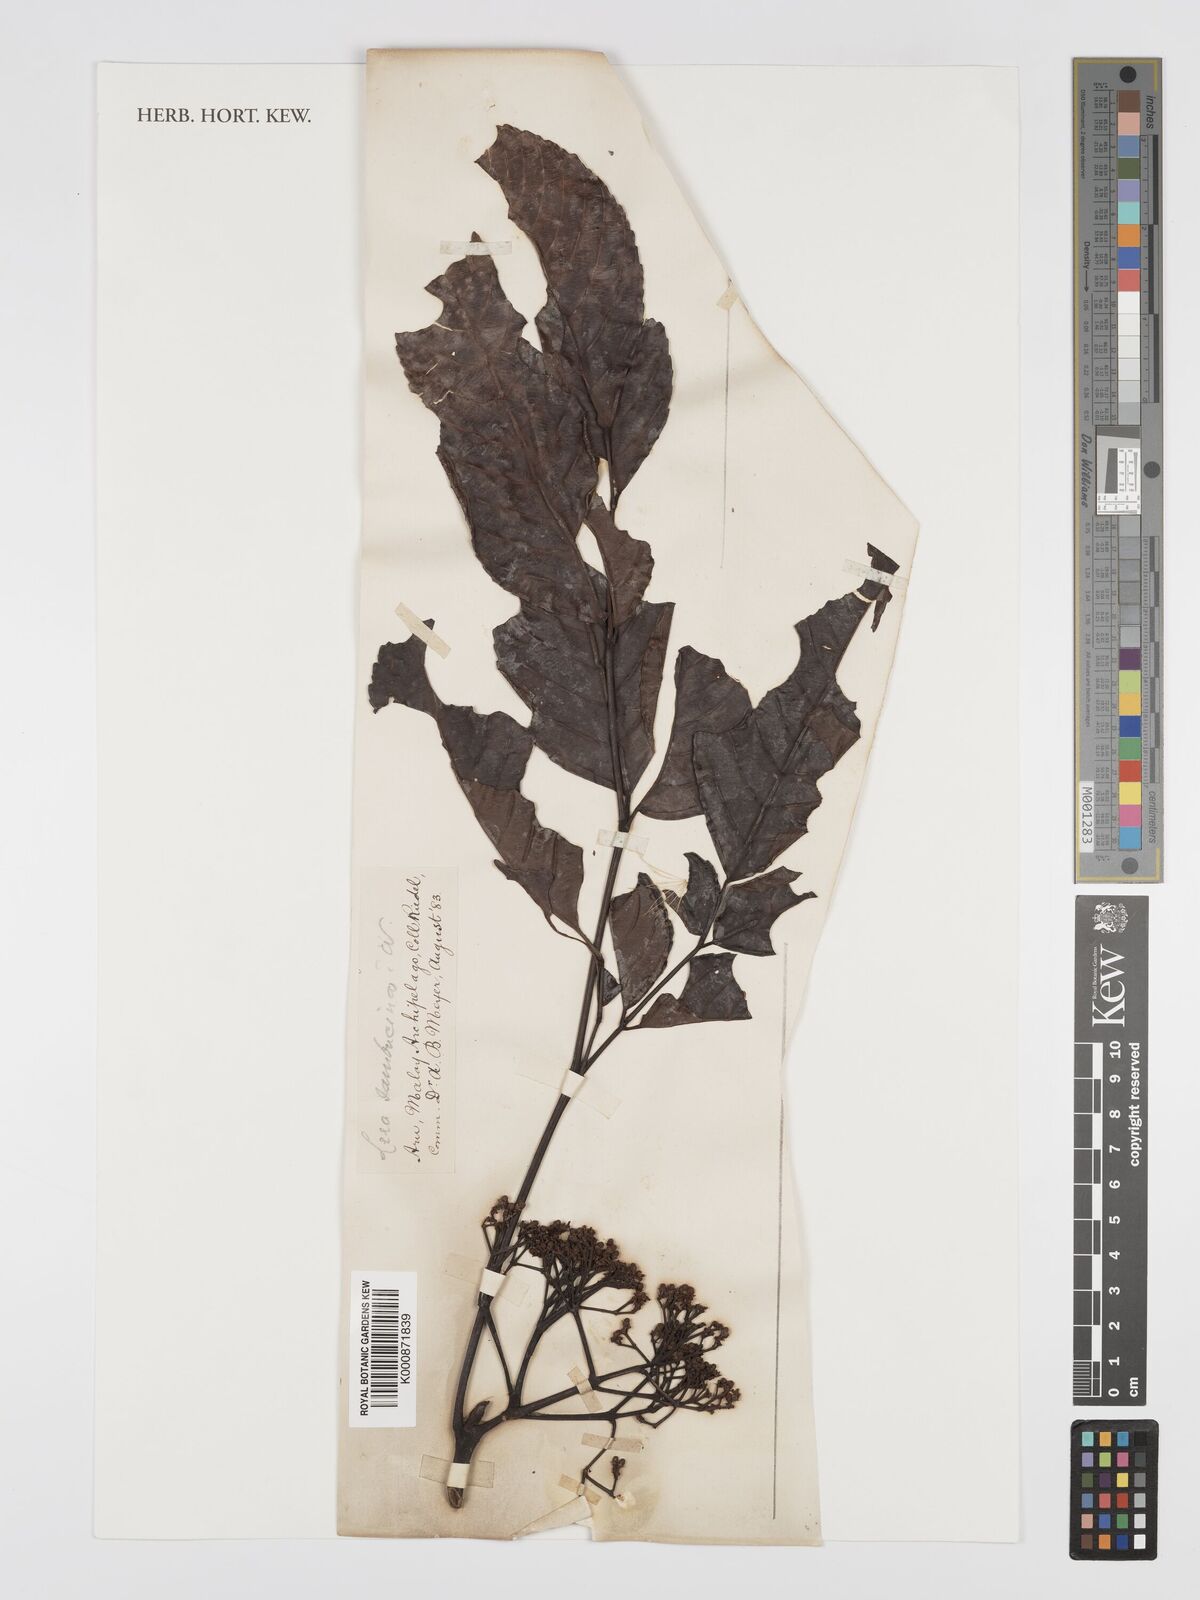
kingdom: Plantae
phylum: Tracheophyta
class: Magnoliopsida
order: Vitales
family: Vitaceae
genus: Leea
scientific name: Leea indica
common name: Bandicoot-berry
